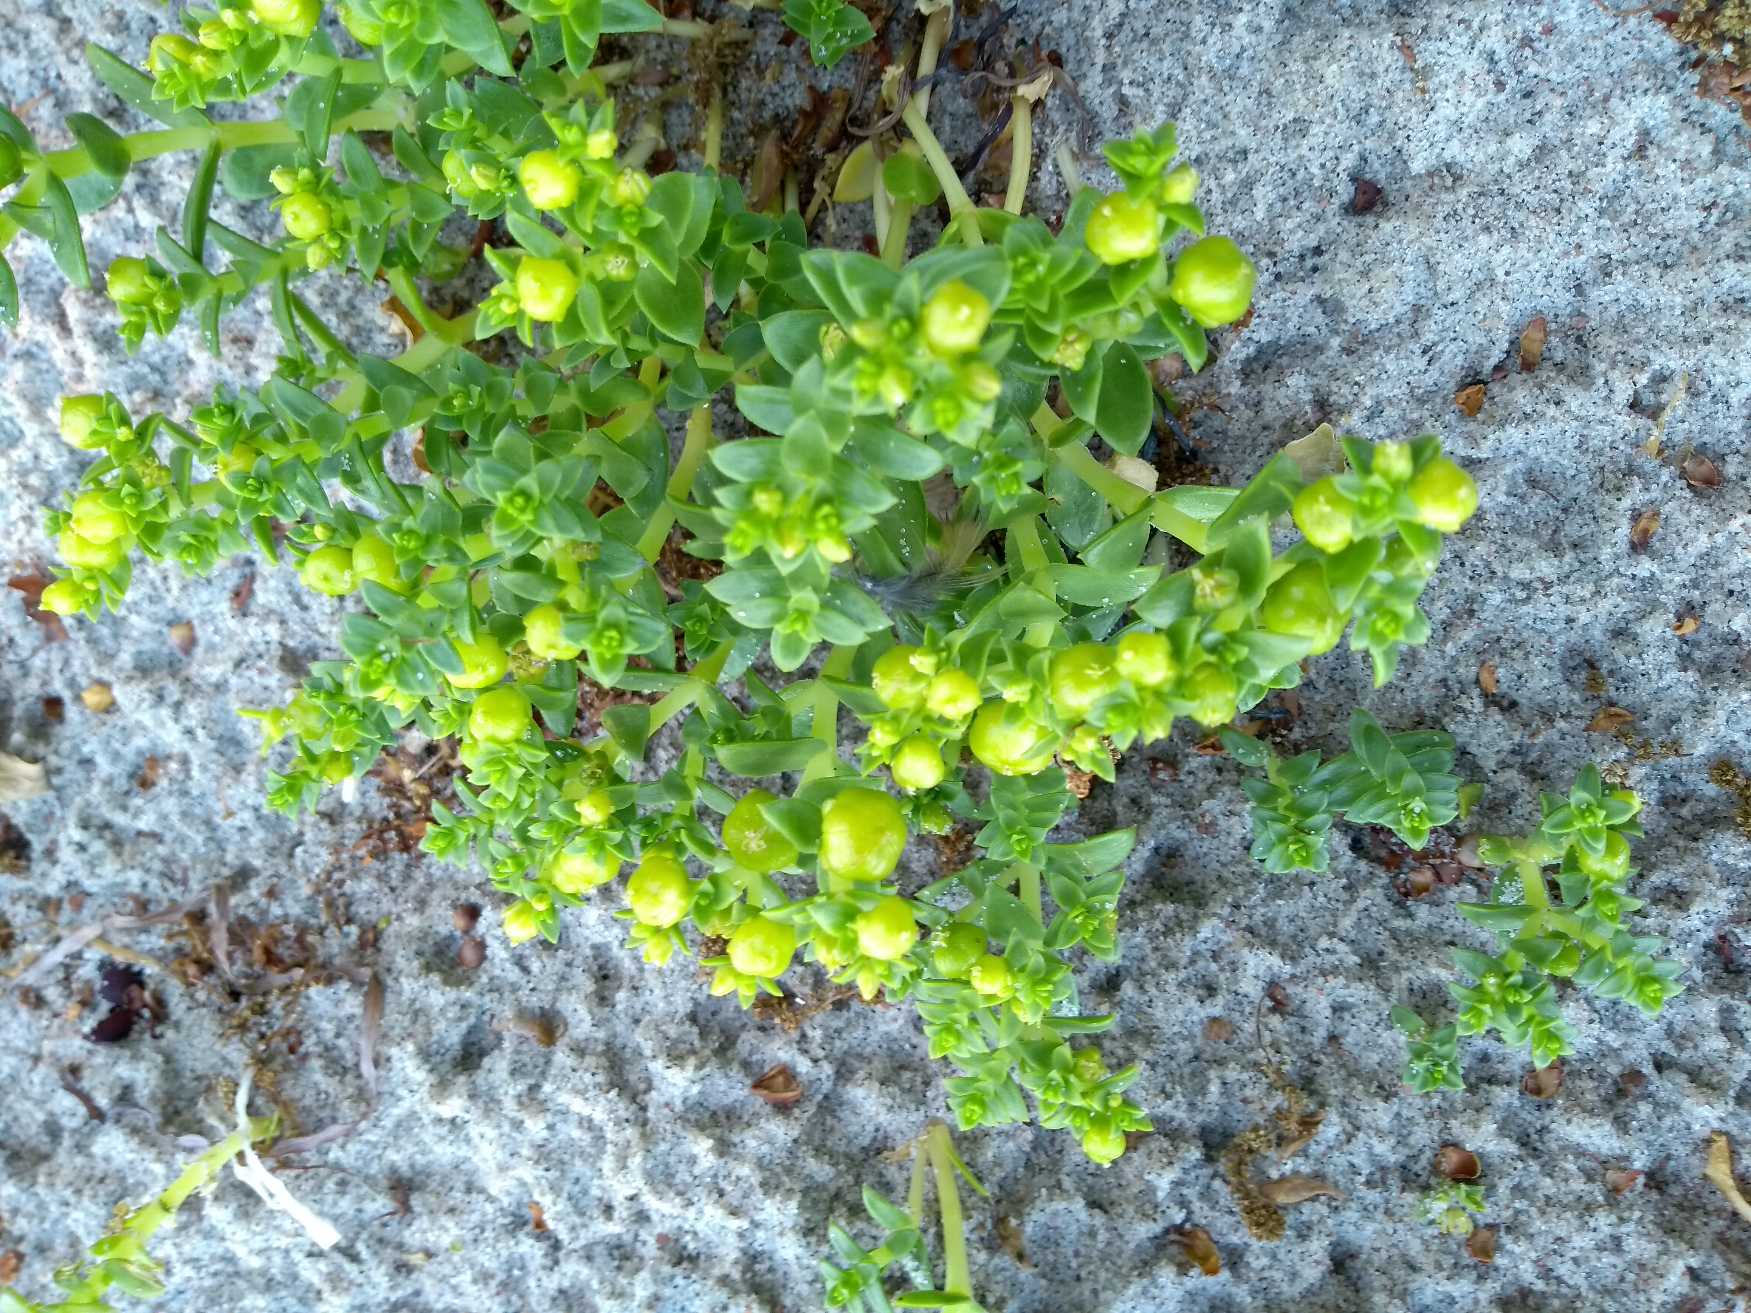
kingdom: Plantae
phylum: Tracheophyta
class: Magnoliopsida
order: Caryophyllales
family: Caryophyllaceae
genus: Honckenya
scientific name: Honckenya peploides
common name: Strandarve
